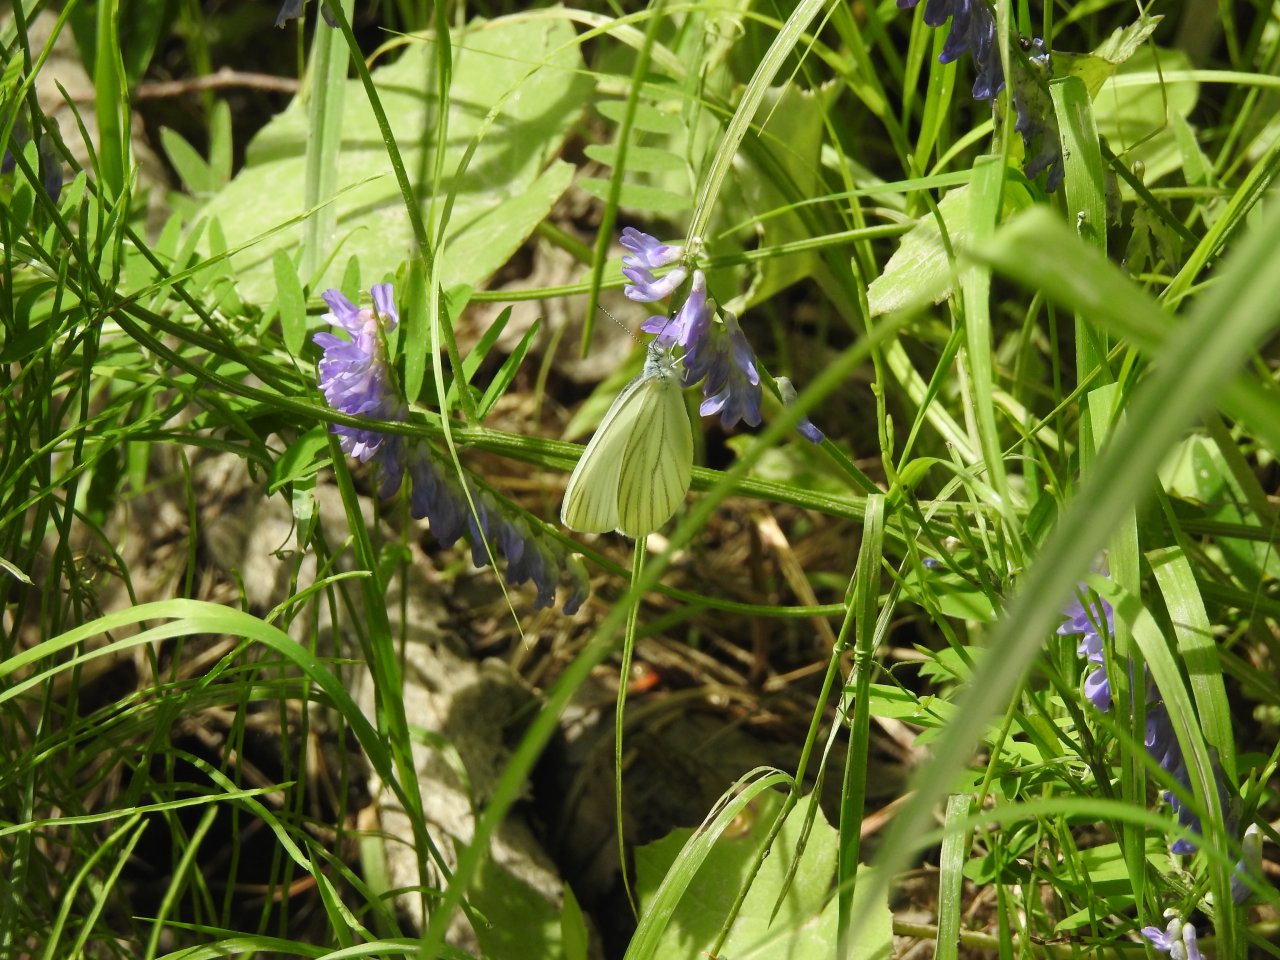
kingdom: Animalia
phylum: Arthropoda
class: Insecta
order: Lepidoptera
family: Pieridae
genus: Pieris
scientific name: Pieris oleracea
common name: Mustard White
